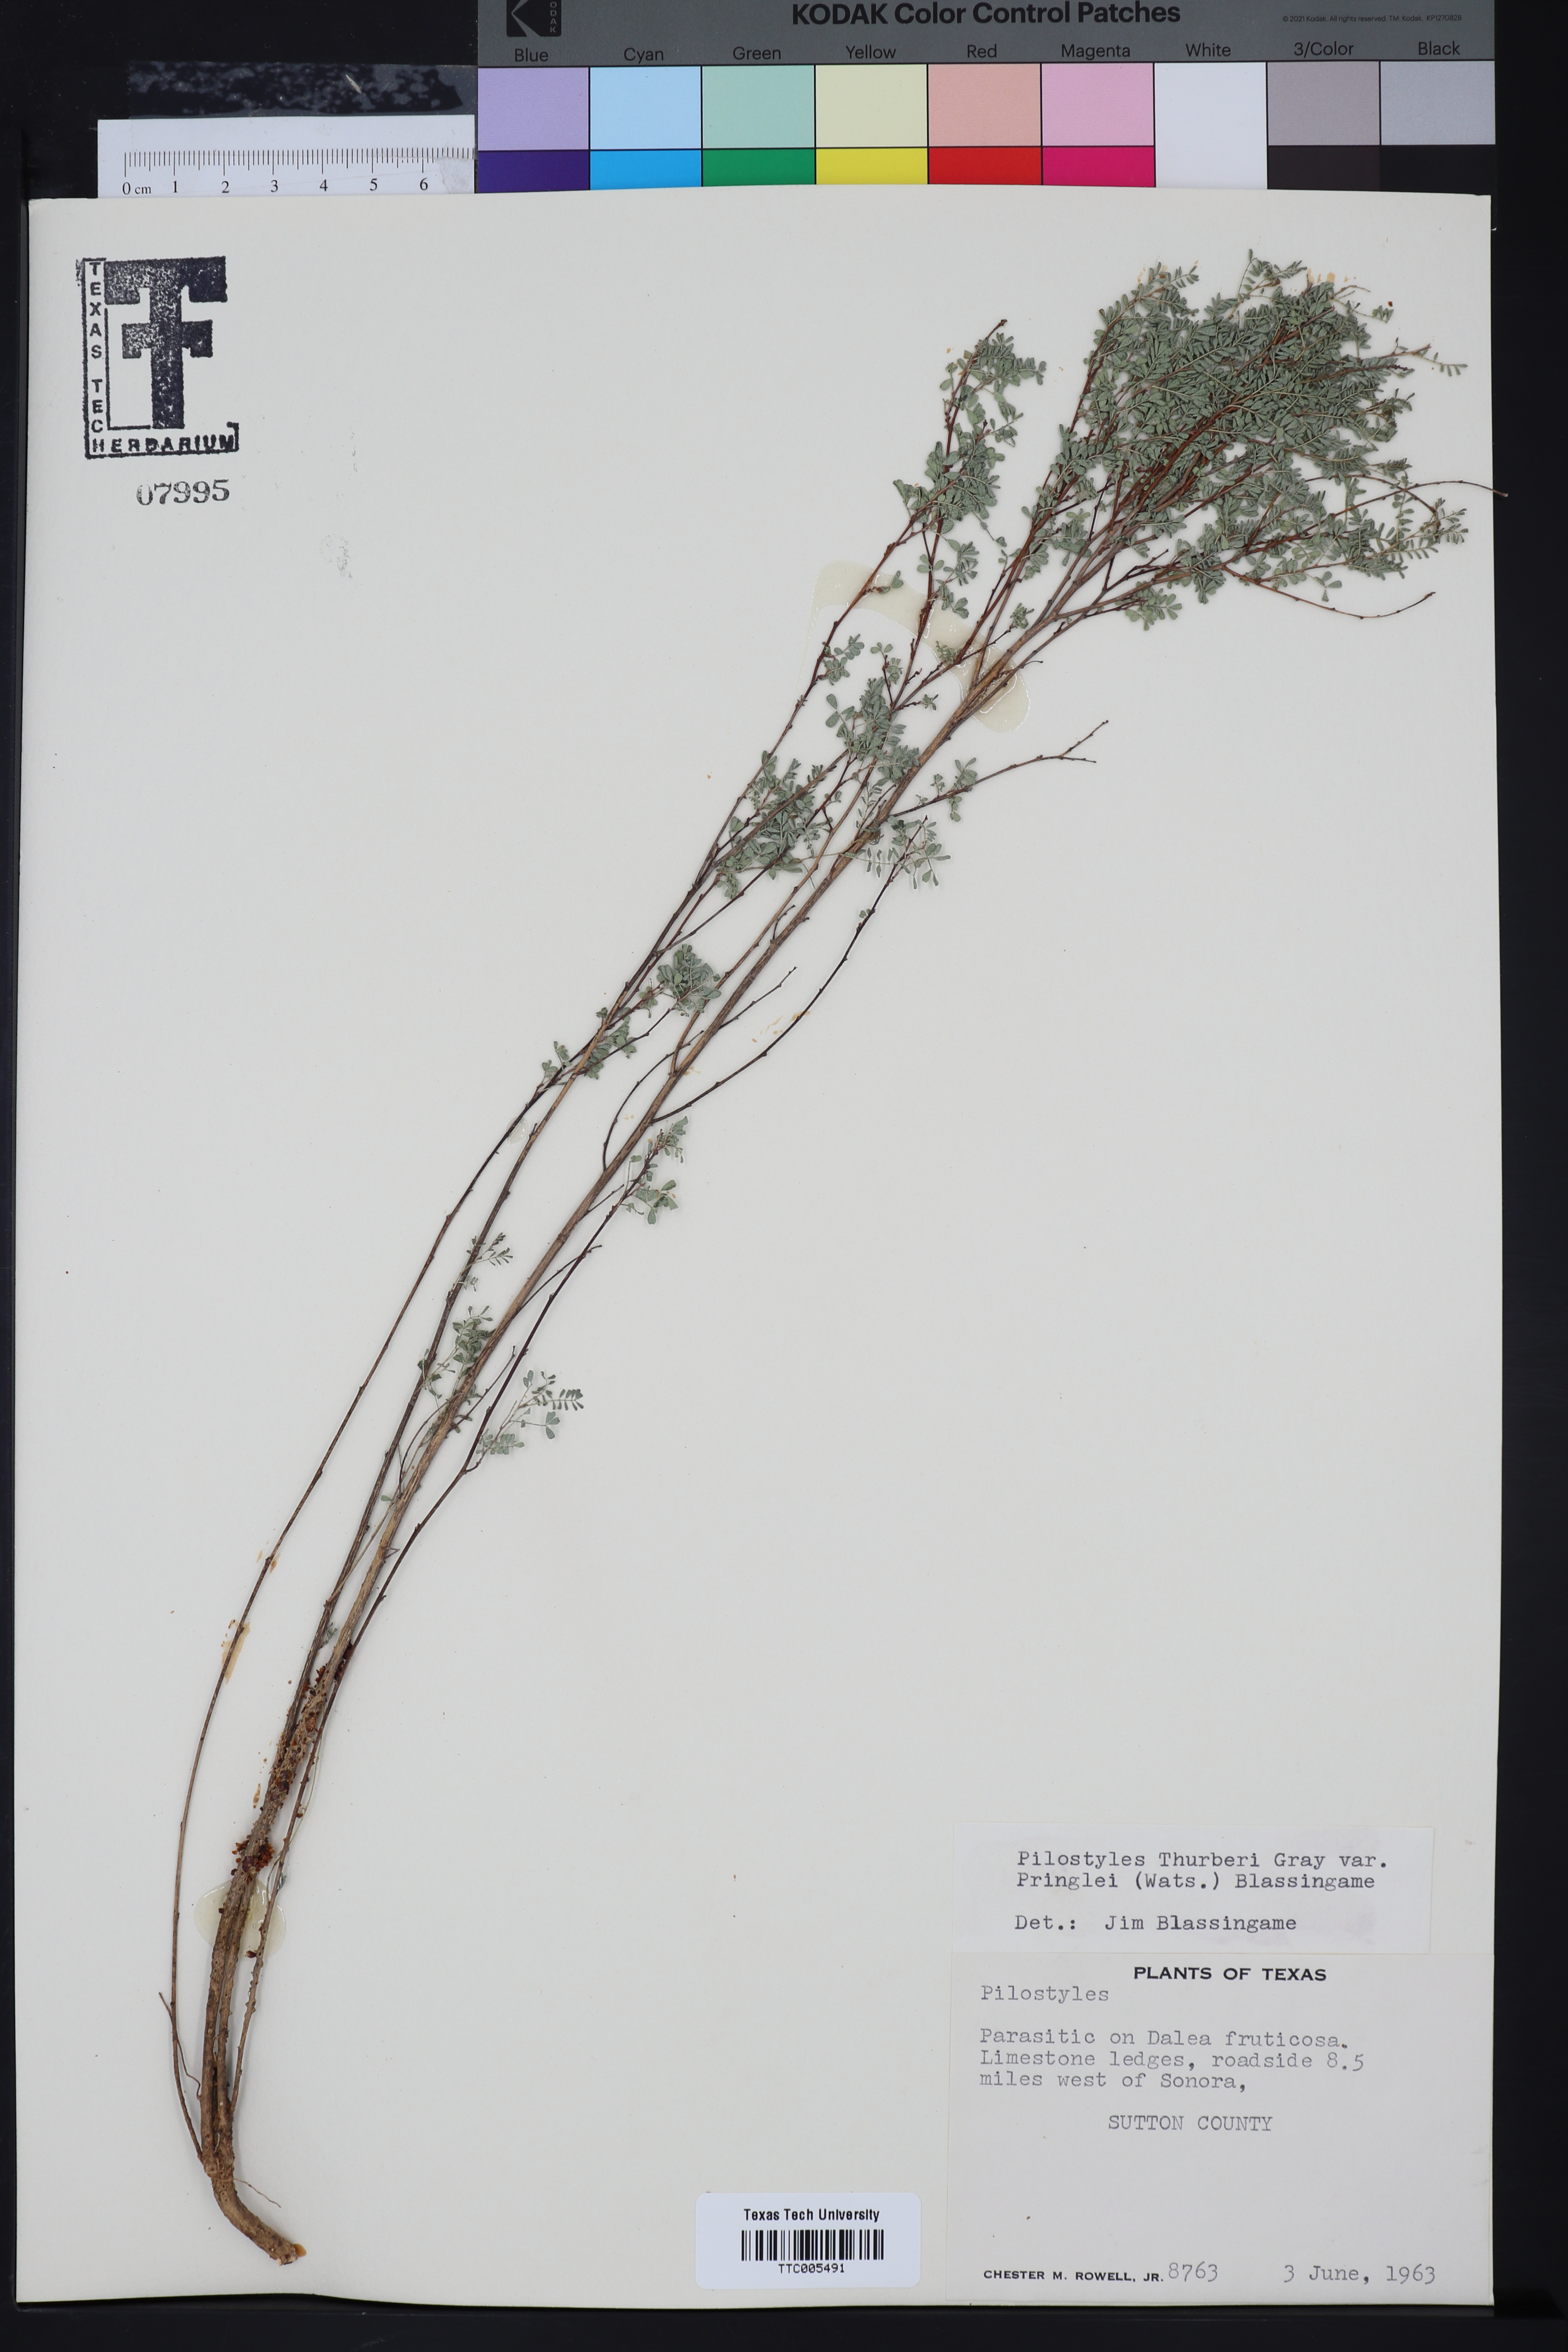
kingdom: Plantae
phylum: Tracheophyta
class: Magnoliopsida
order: Cucurbitales
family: Apodanthaceae
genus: Pilostyles
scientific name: Pilostyles
